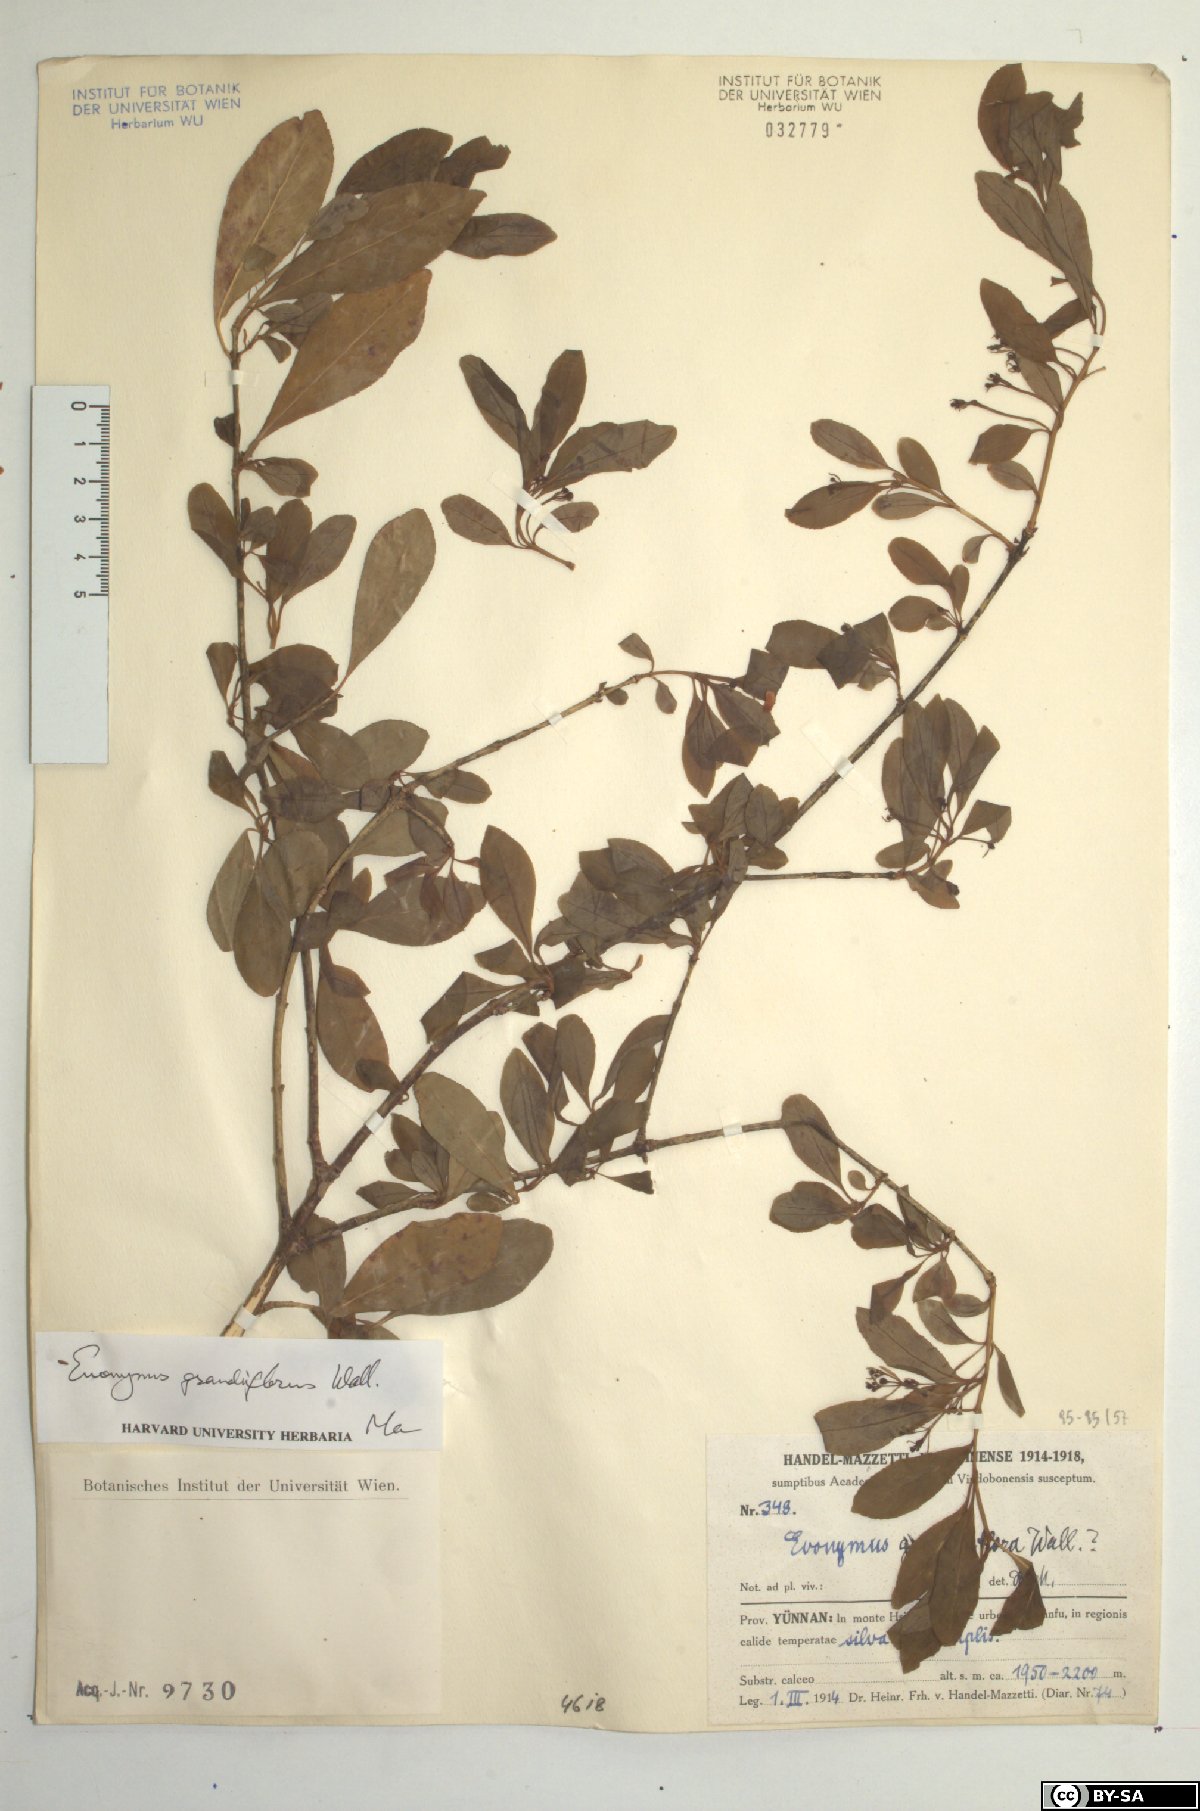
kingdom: Plantae
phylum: Tracheophyta
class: Magnoliopsida
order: Celastrales
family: Celastraceae
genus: Euonymus
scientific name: Euonymus grandiflorus
